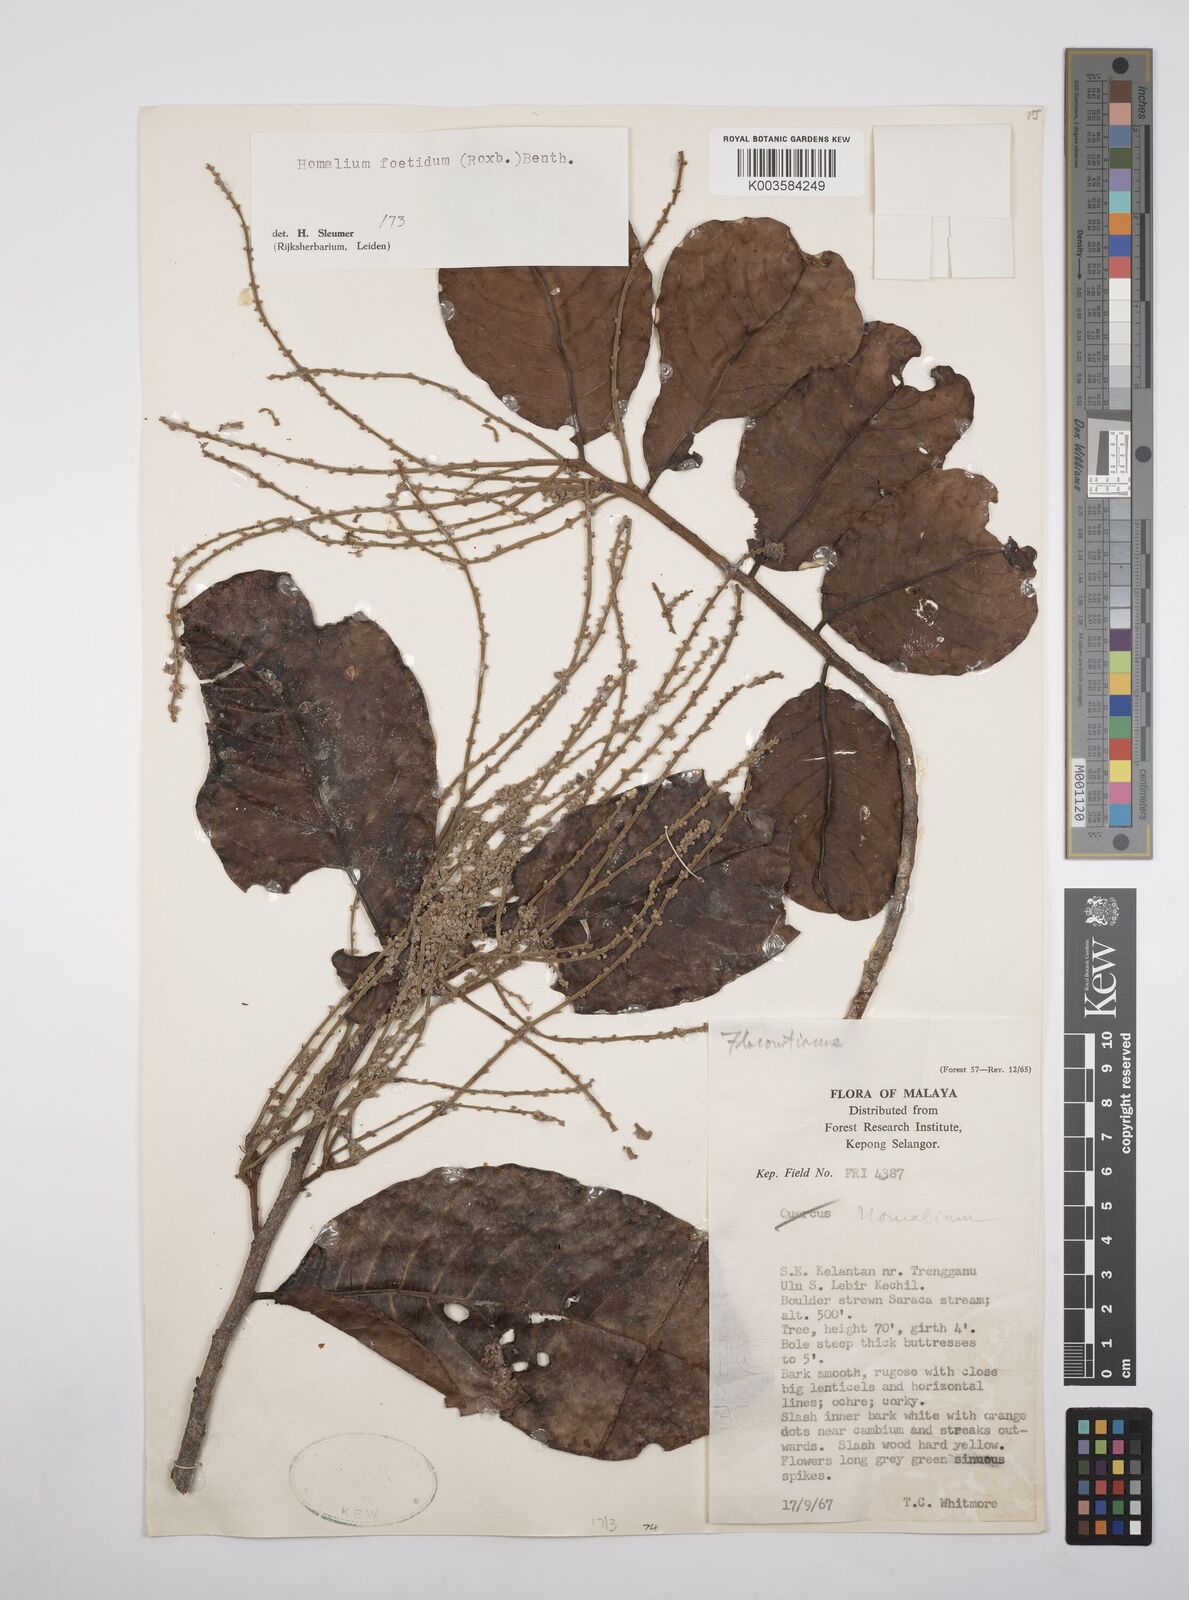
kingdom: Plantae
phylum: Tracheophyta
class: Magnoliopsida
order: Malpighiales
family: Salicaceae
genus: Homalium
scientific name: Homalium foetidum
